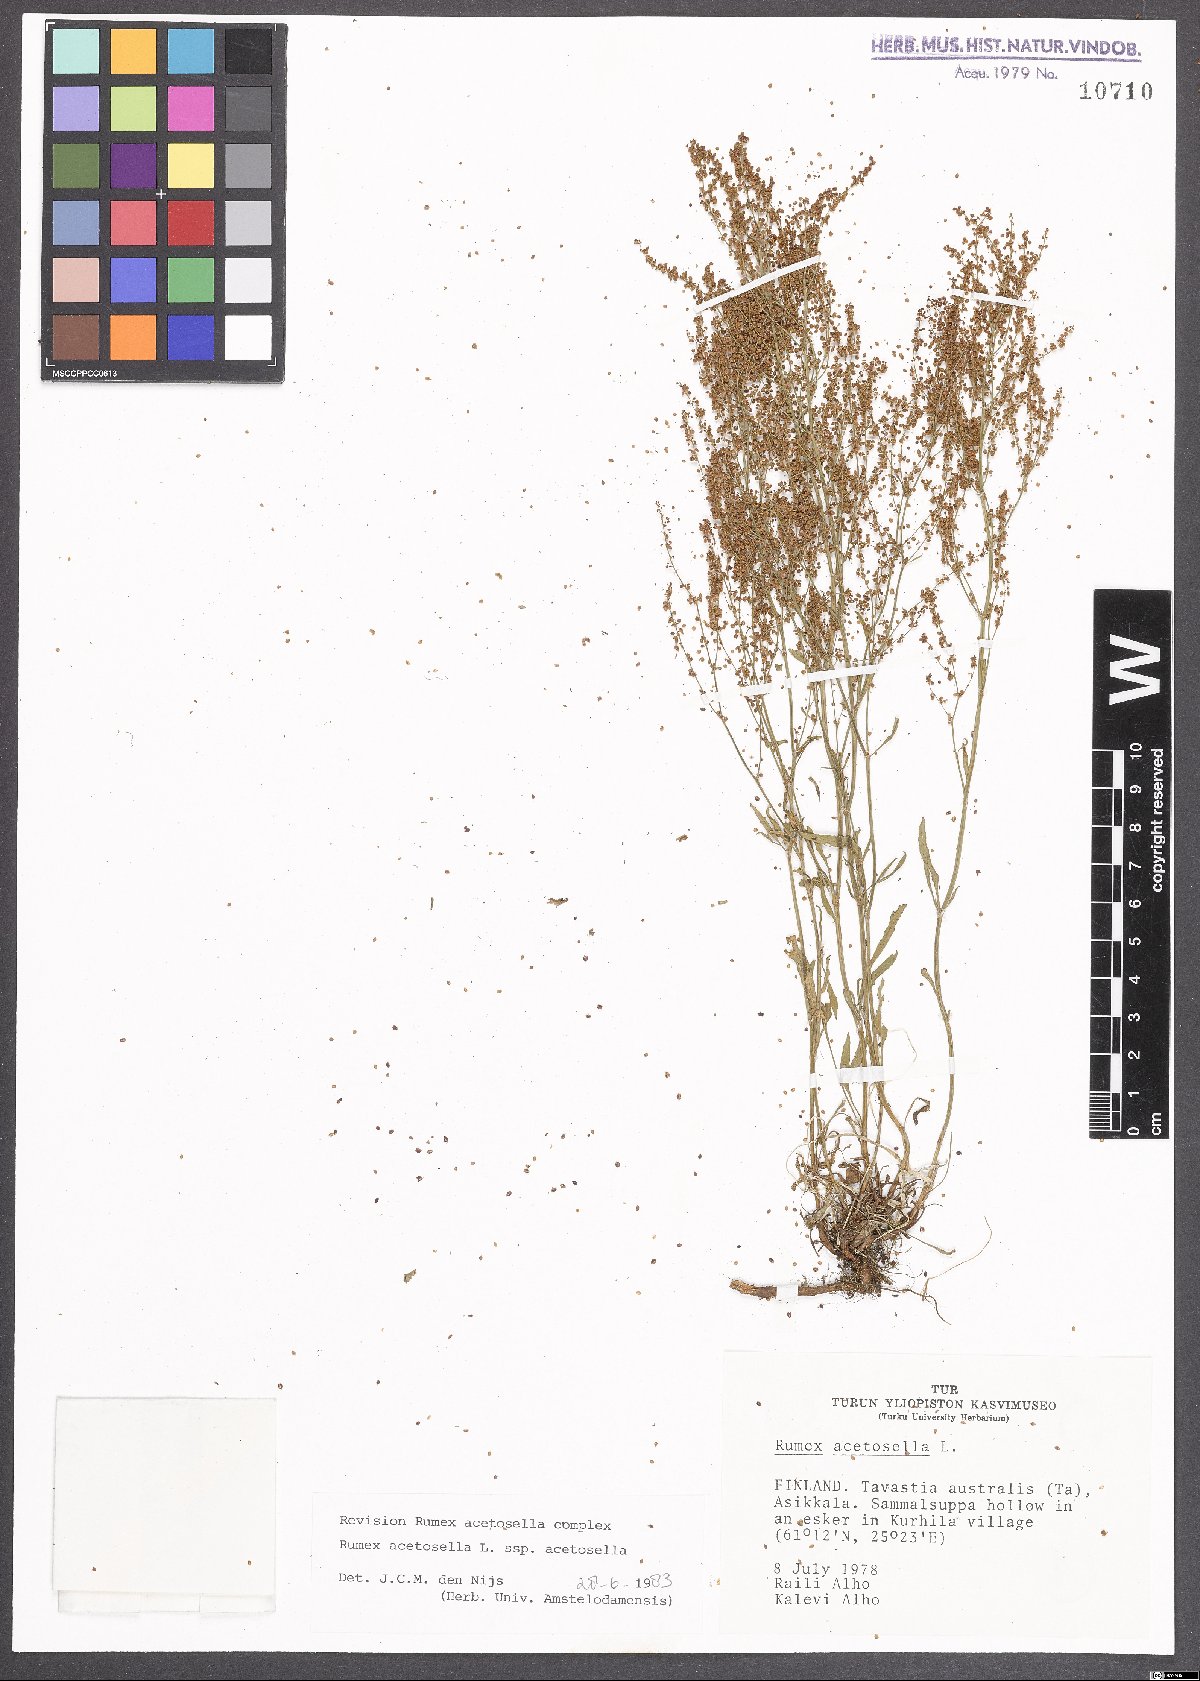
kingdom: Plantae
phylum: Tracheophyta
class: Magnoliopsida
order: Caryophyllales
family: Polygonaceae
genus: Rumex
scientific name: Rumex acetosella
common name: Common sheep sorrel
